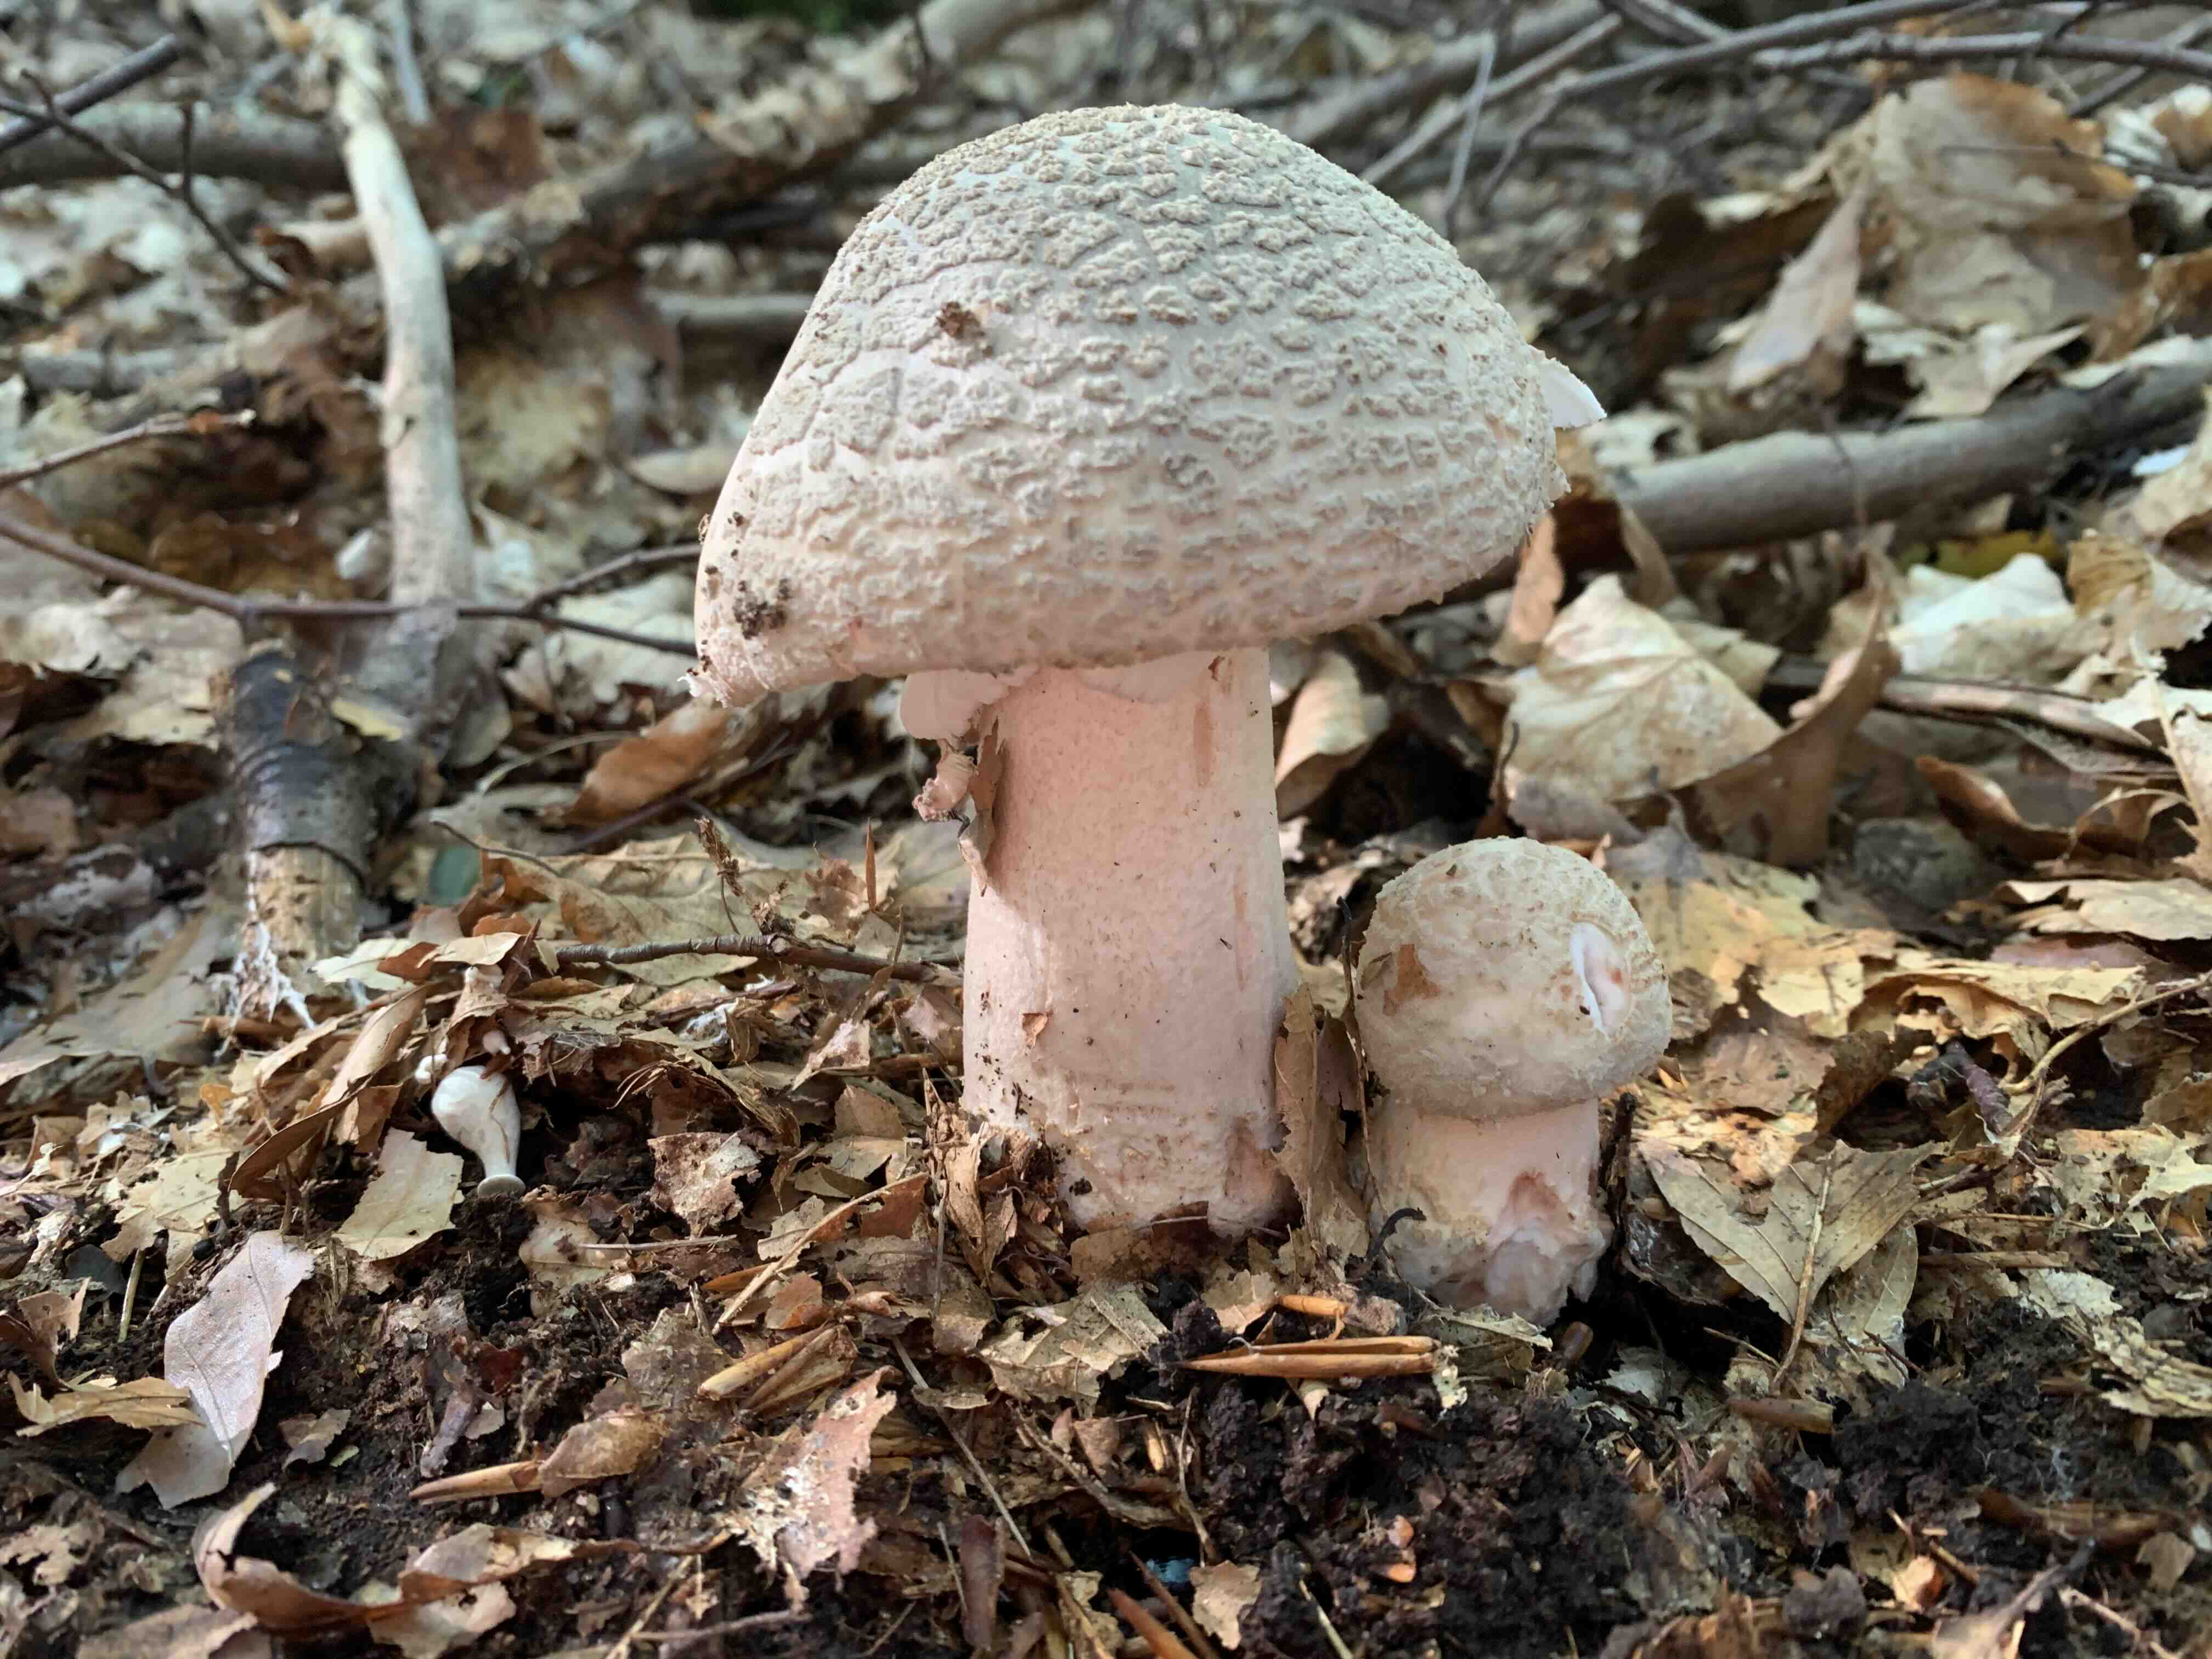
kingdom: Fungi
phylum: Basidiomycota
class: Agaricomycetes
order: Agaricales
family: Amanitaceae
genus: Amanita
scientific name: Amanita rubescens
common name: rødmende fluesvamp
